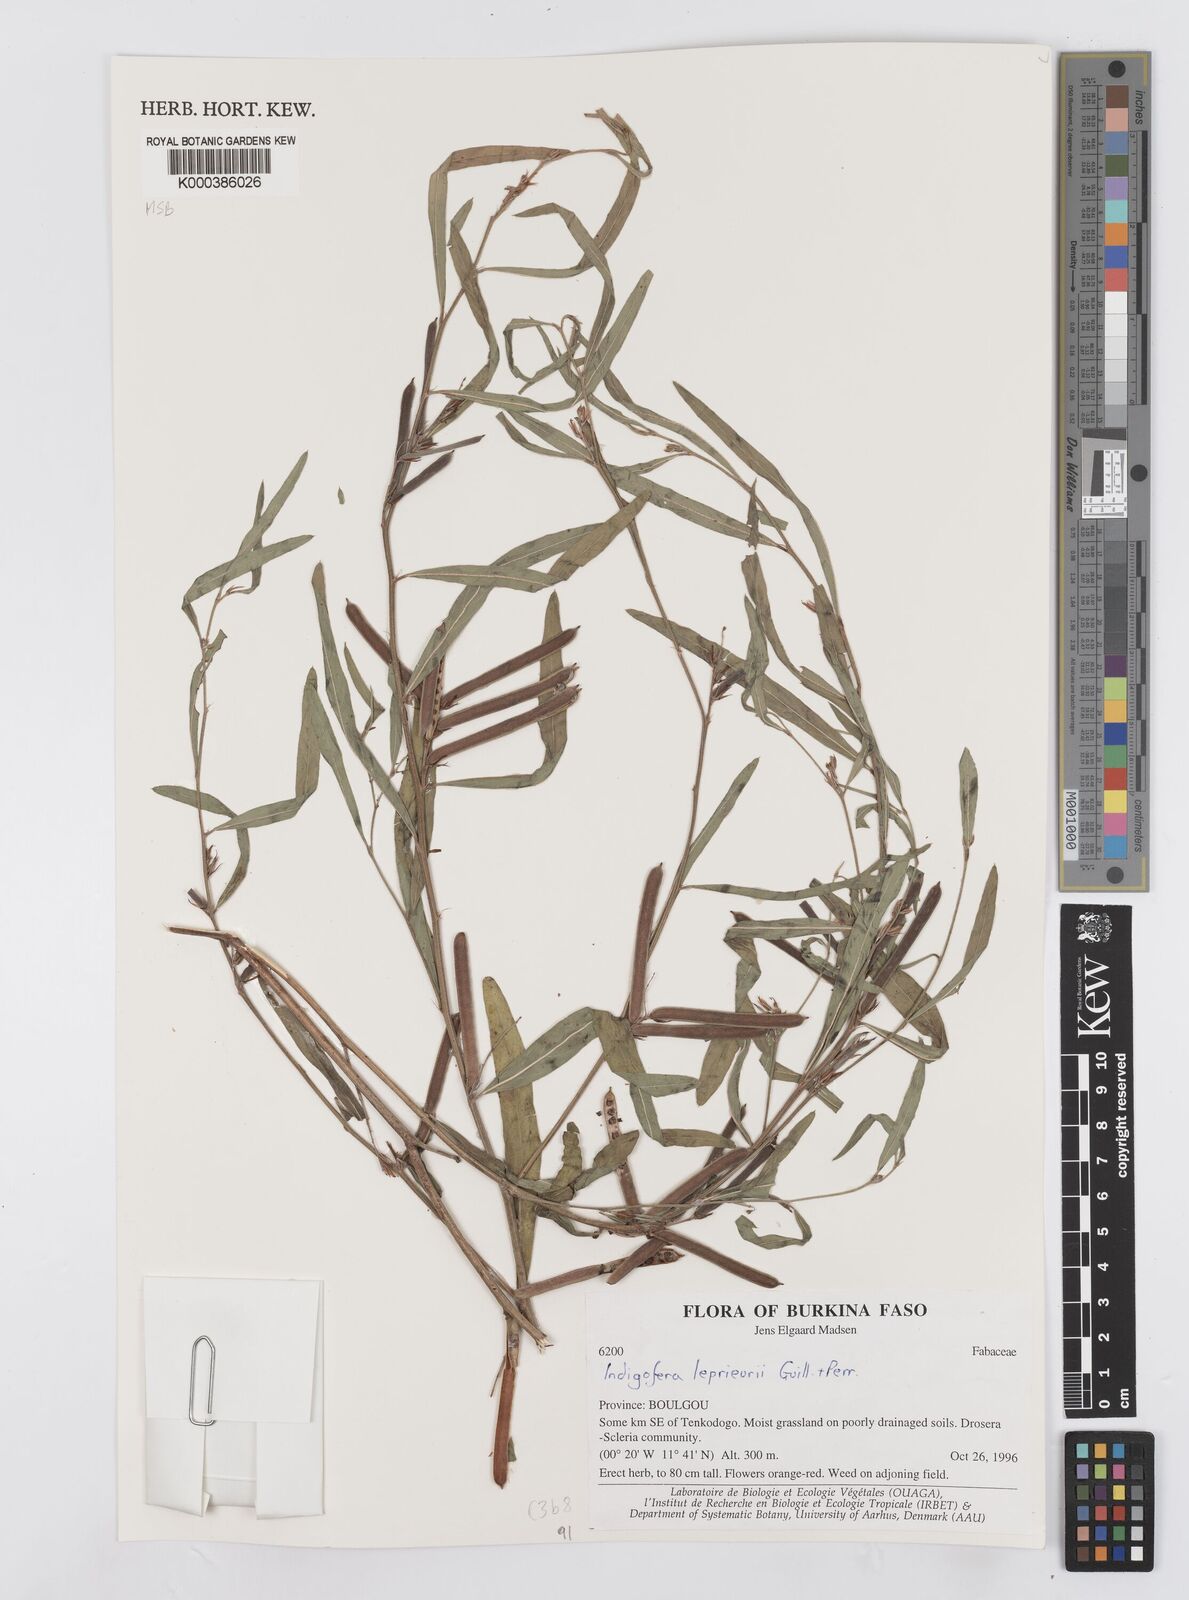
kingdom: Plantae
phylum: Tracheophyta
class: Magnoliopsida
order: Fabales
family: Fabaceae
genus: Indigofera
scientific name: Indigofera leprieurii
